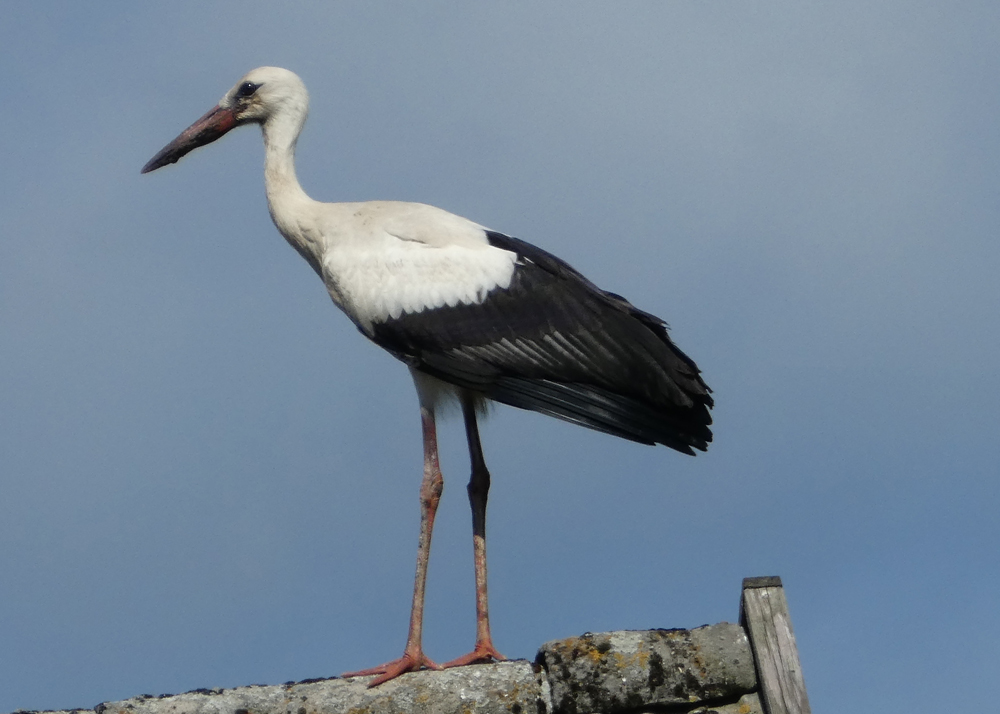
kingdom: Animalia
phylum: Chordata
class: Aves
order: Ciconiiformes
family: Ciconiidae
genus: Ciconia
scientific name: Ciconia ciconia
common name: White stork
